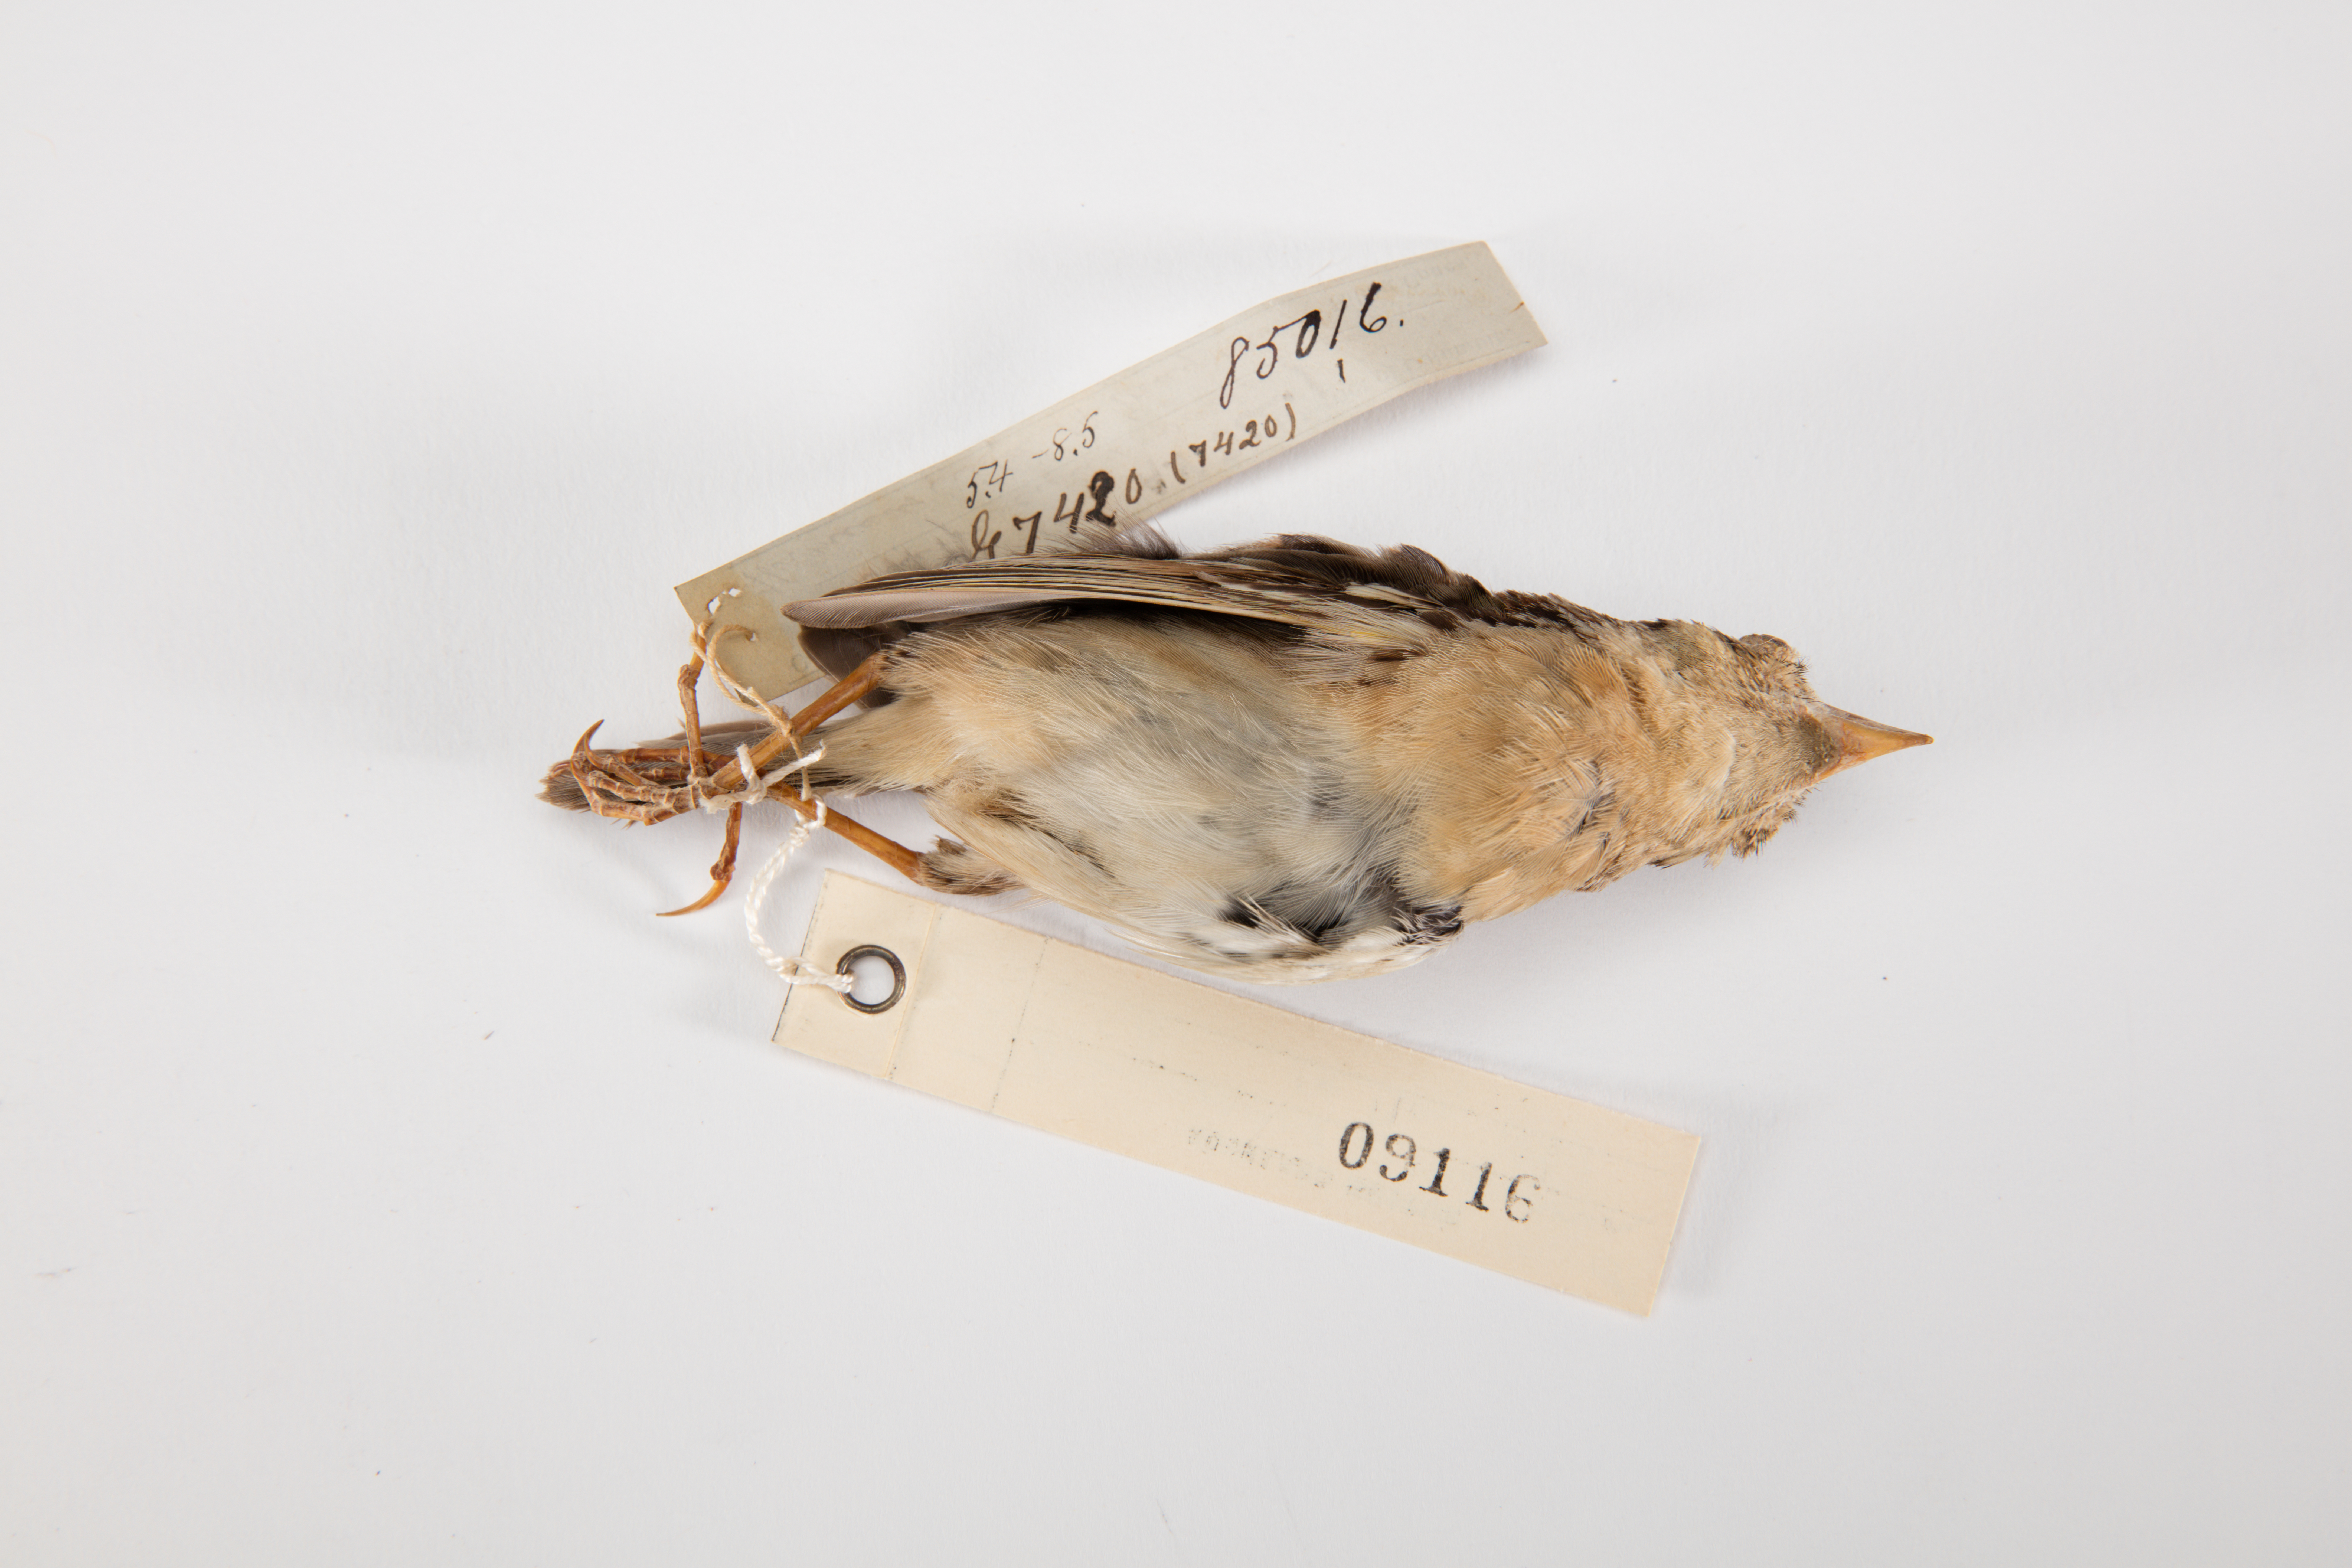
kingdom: Animalia
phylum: Chordata
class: Aves
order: Passeriformes
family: Passerellidae
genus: Ammodramus
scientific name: Ammodramus savannarum
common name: Grasshopper sparrow
